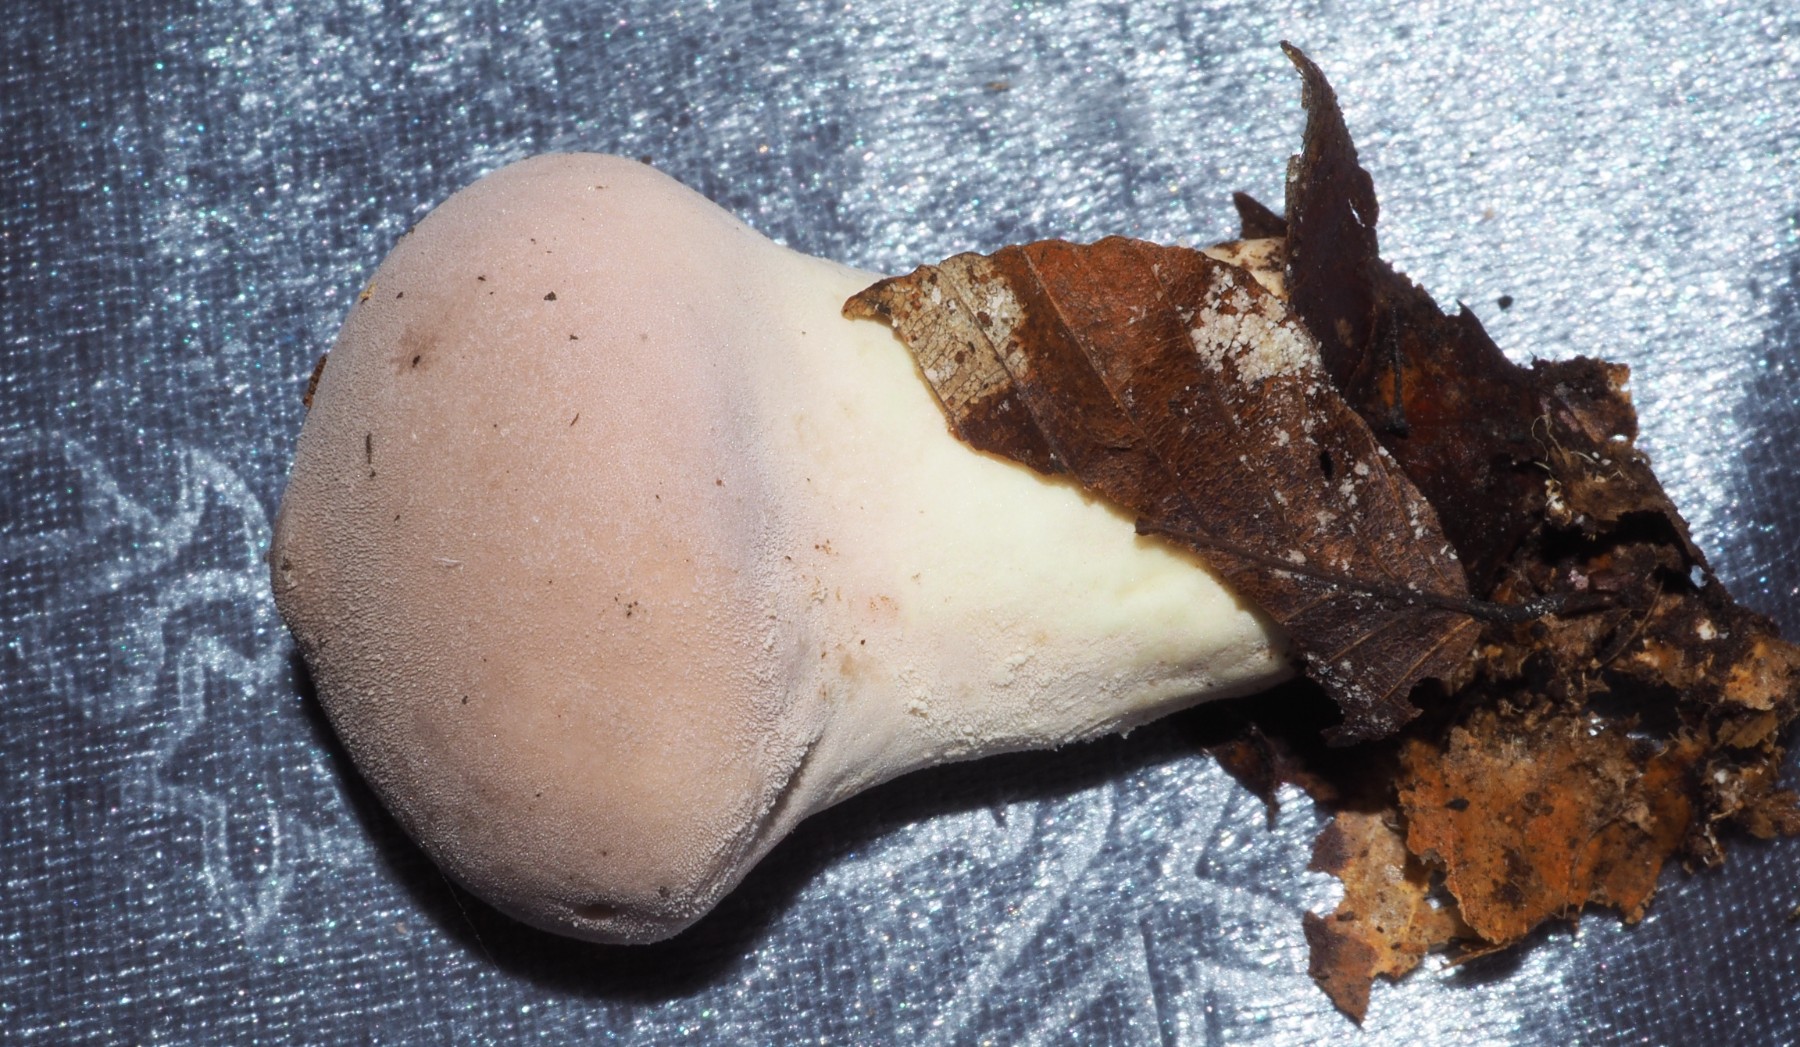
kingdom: Fungi
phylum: Basidiomycota
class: Agaricomycetes
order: Agaricales
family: Lycoperdaceae
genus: Lycoperdon
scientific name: Lycoperdon molle
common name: skov-støvbold
